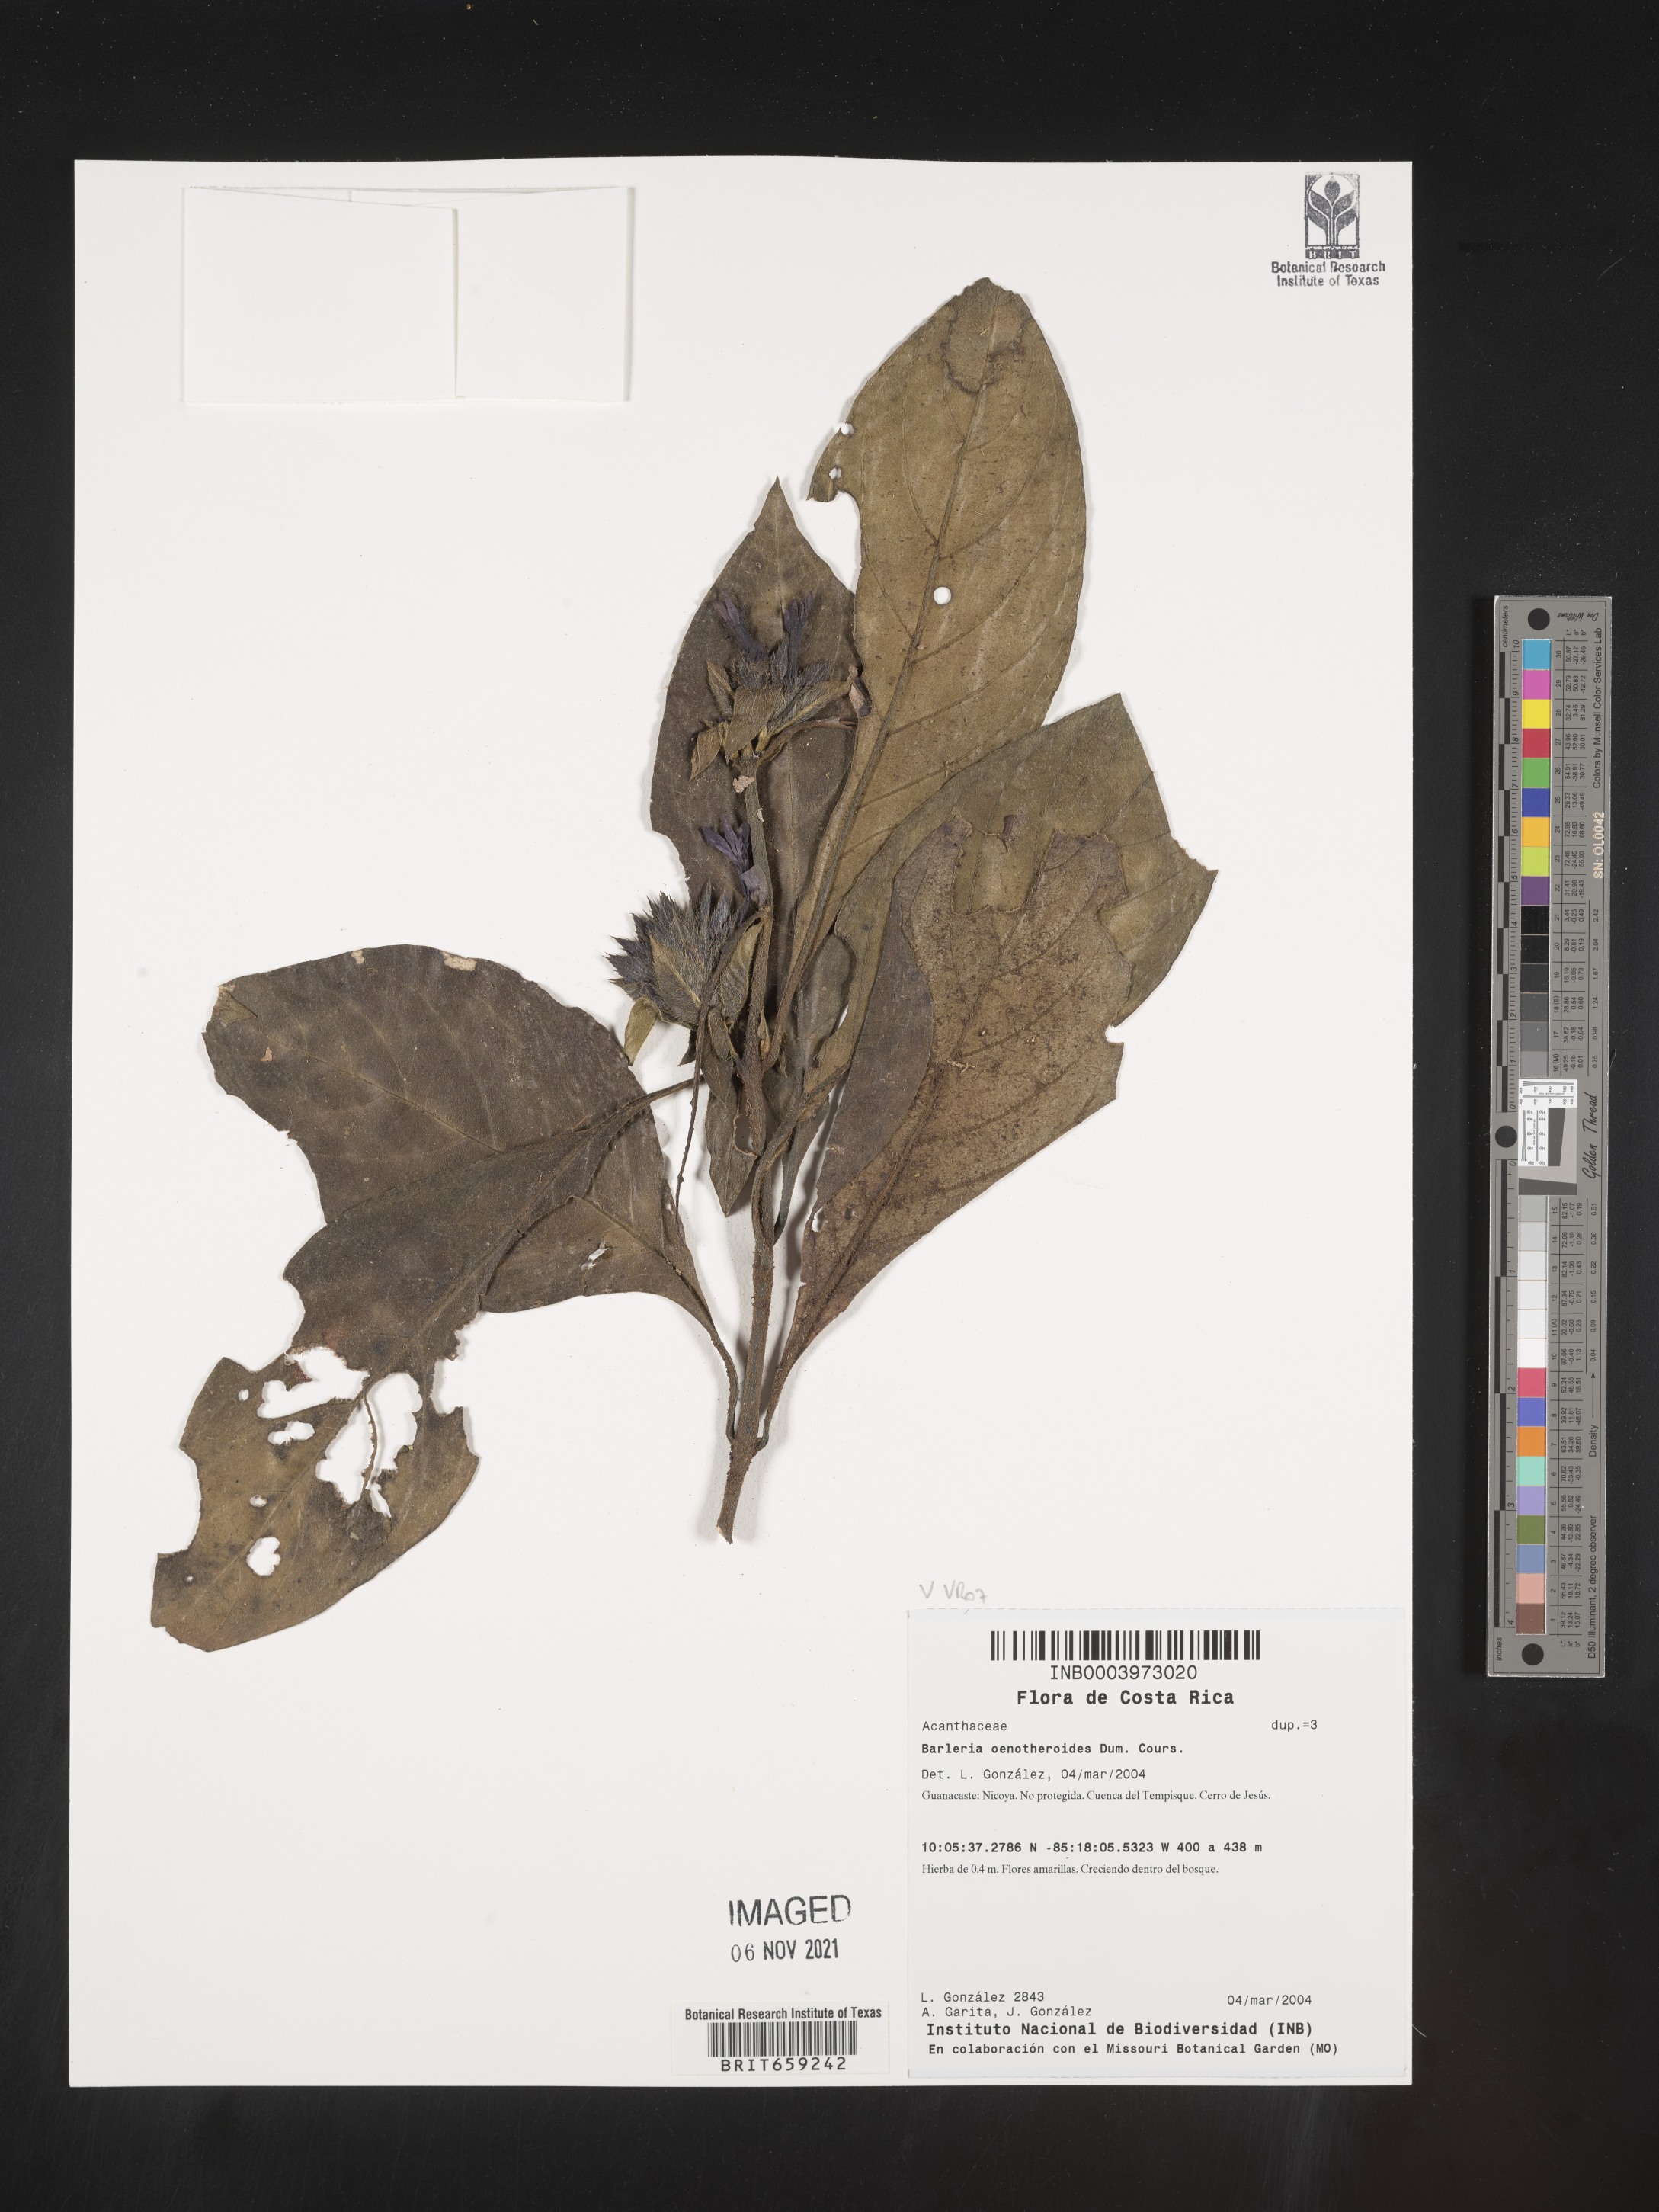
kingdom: Plantae
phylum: Tracheophyta
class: Magnoliopsida
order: Lamiales
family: Acanthaceae
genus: Barleria
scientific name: Barleria
